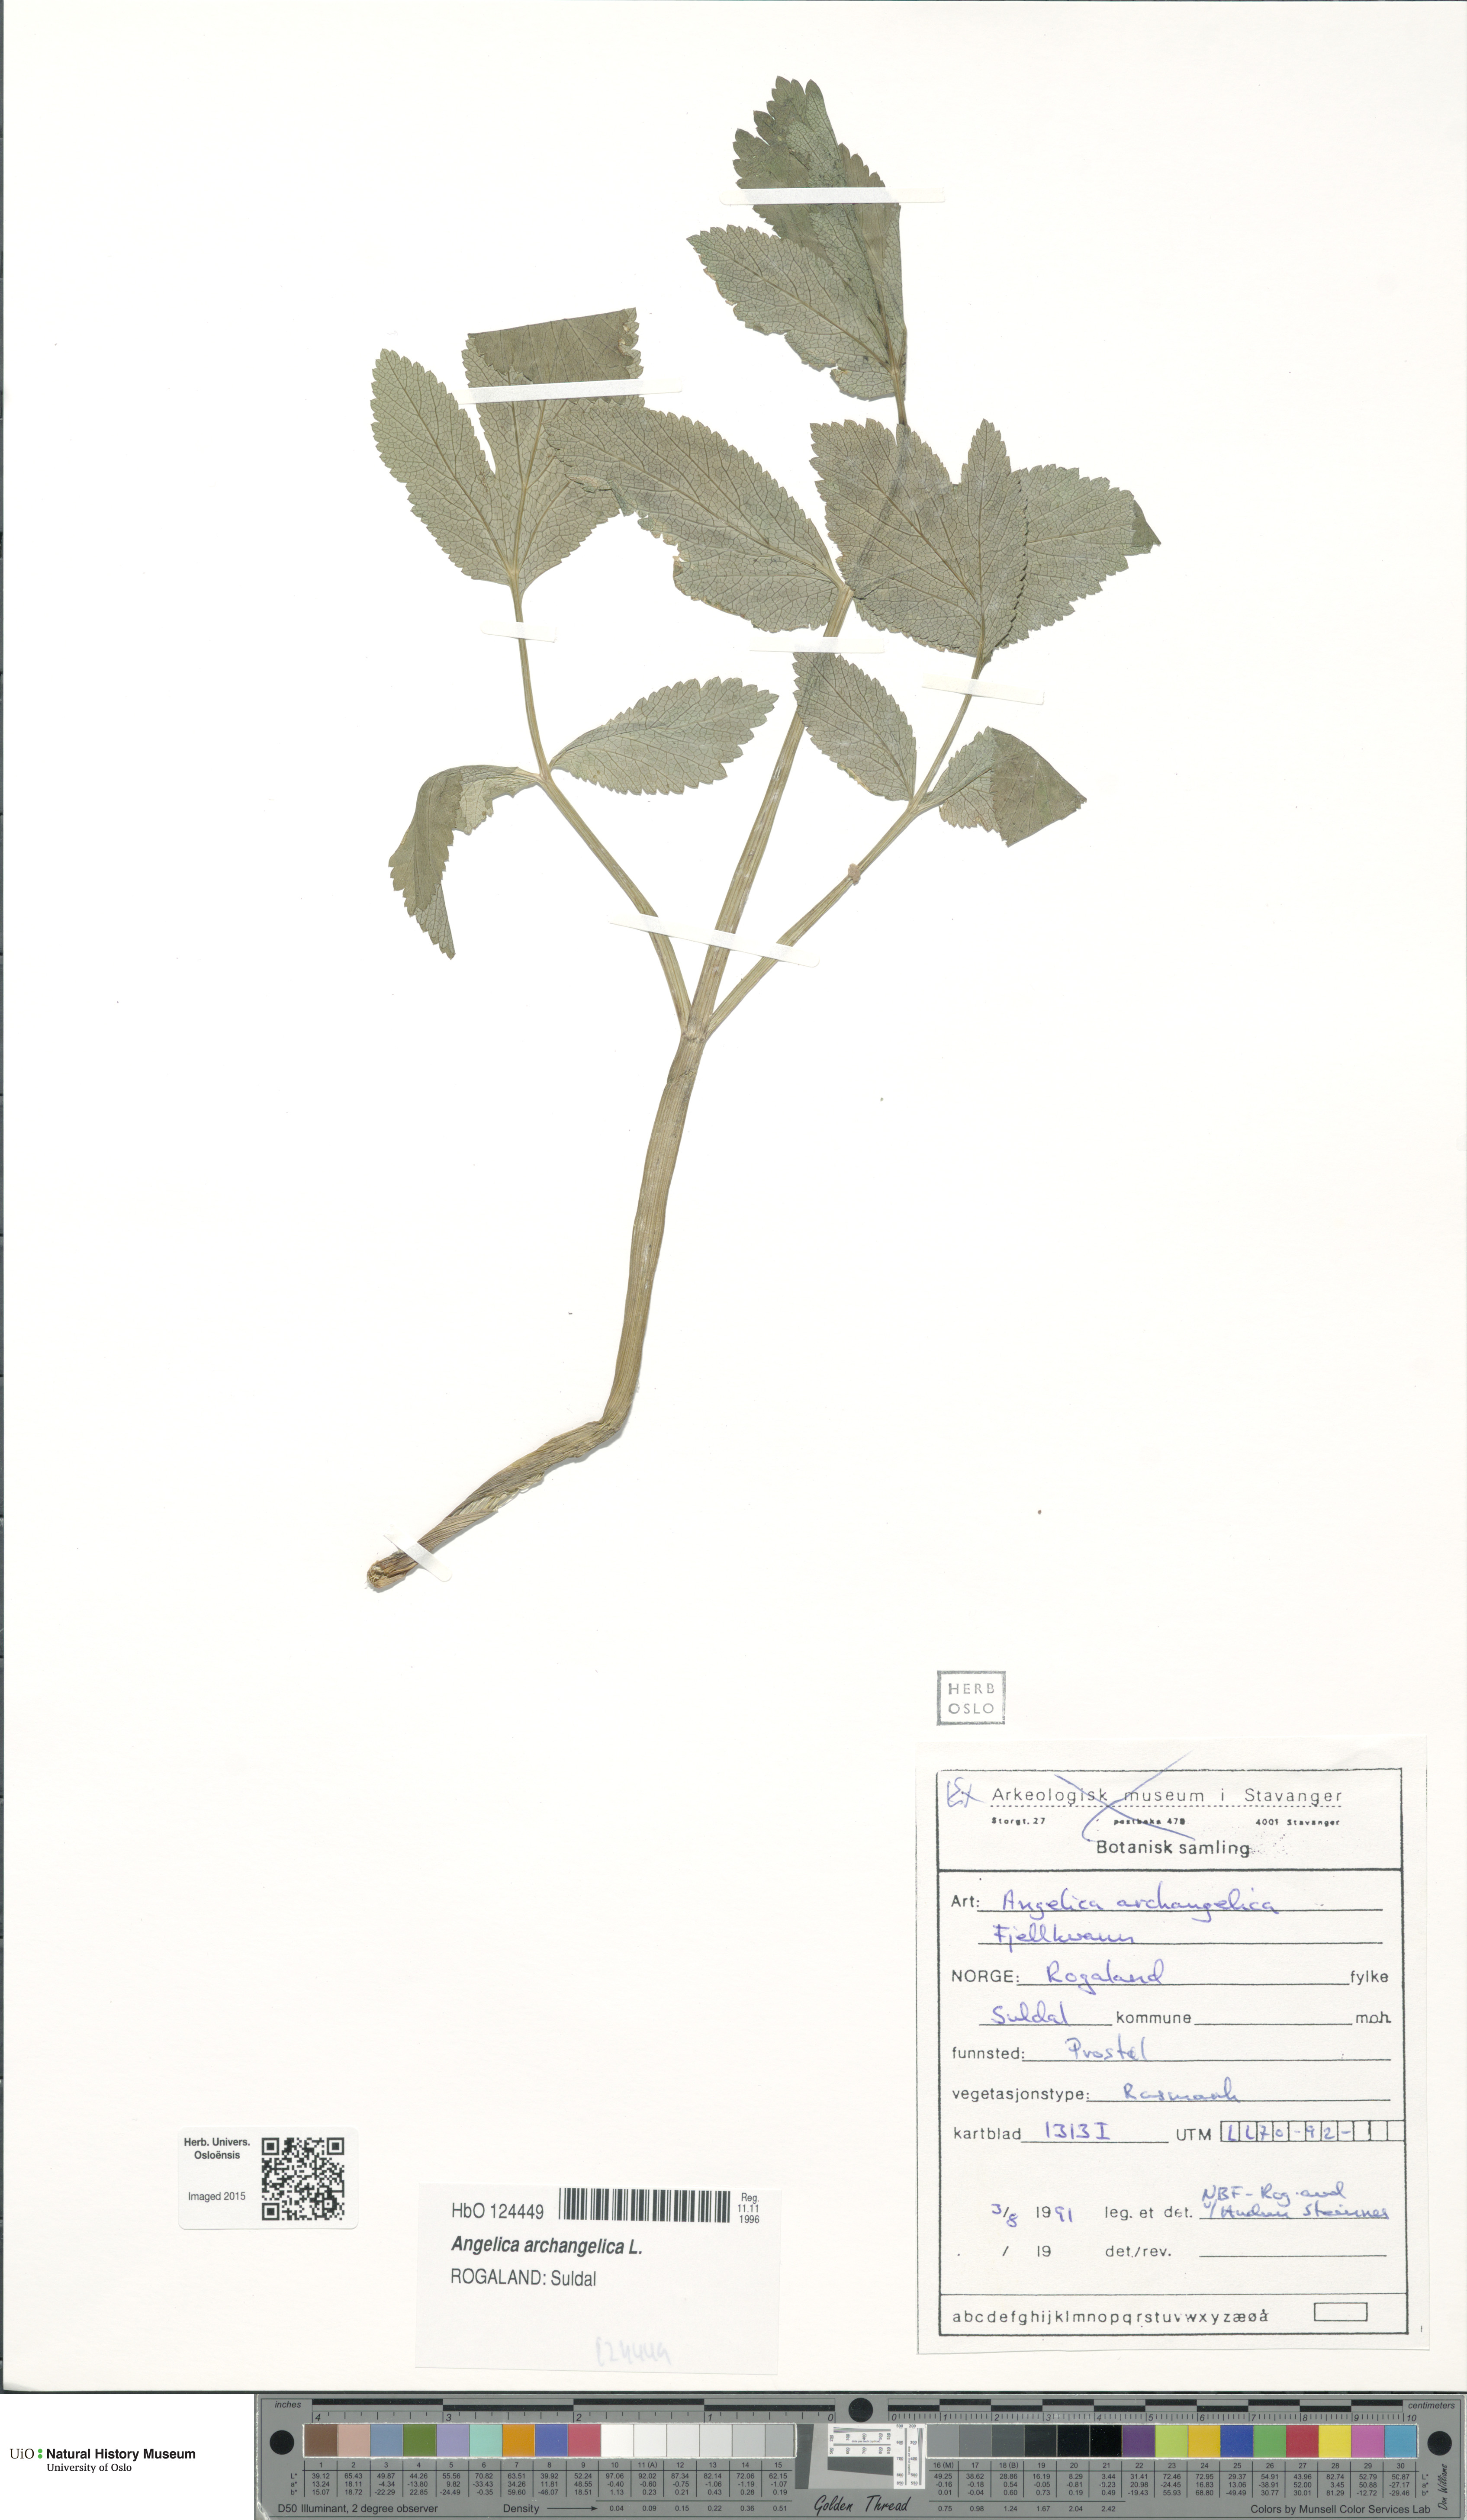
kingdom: Plantae
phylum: Tracheophyta
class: Magnoliopsida
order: Apiales
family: Apiaceae
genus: Angelica
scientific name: Angelica archangelica
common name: Garden angelica
